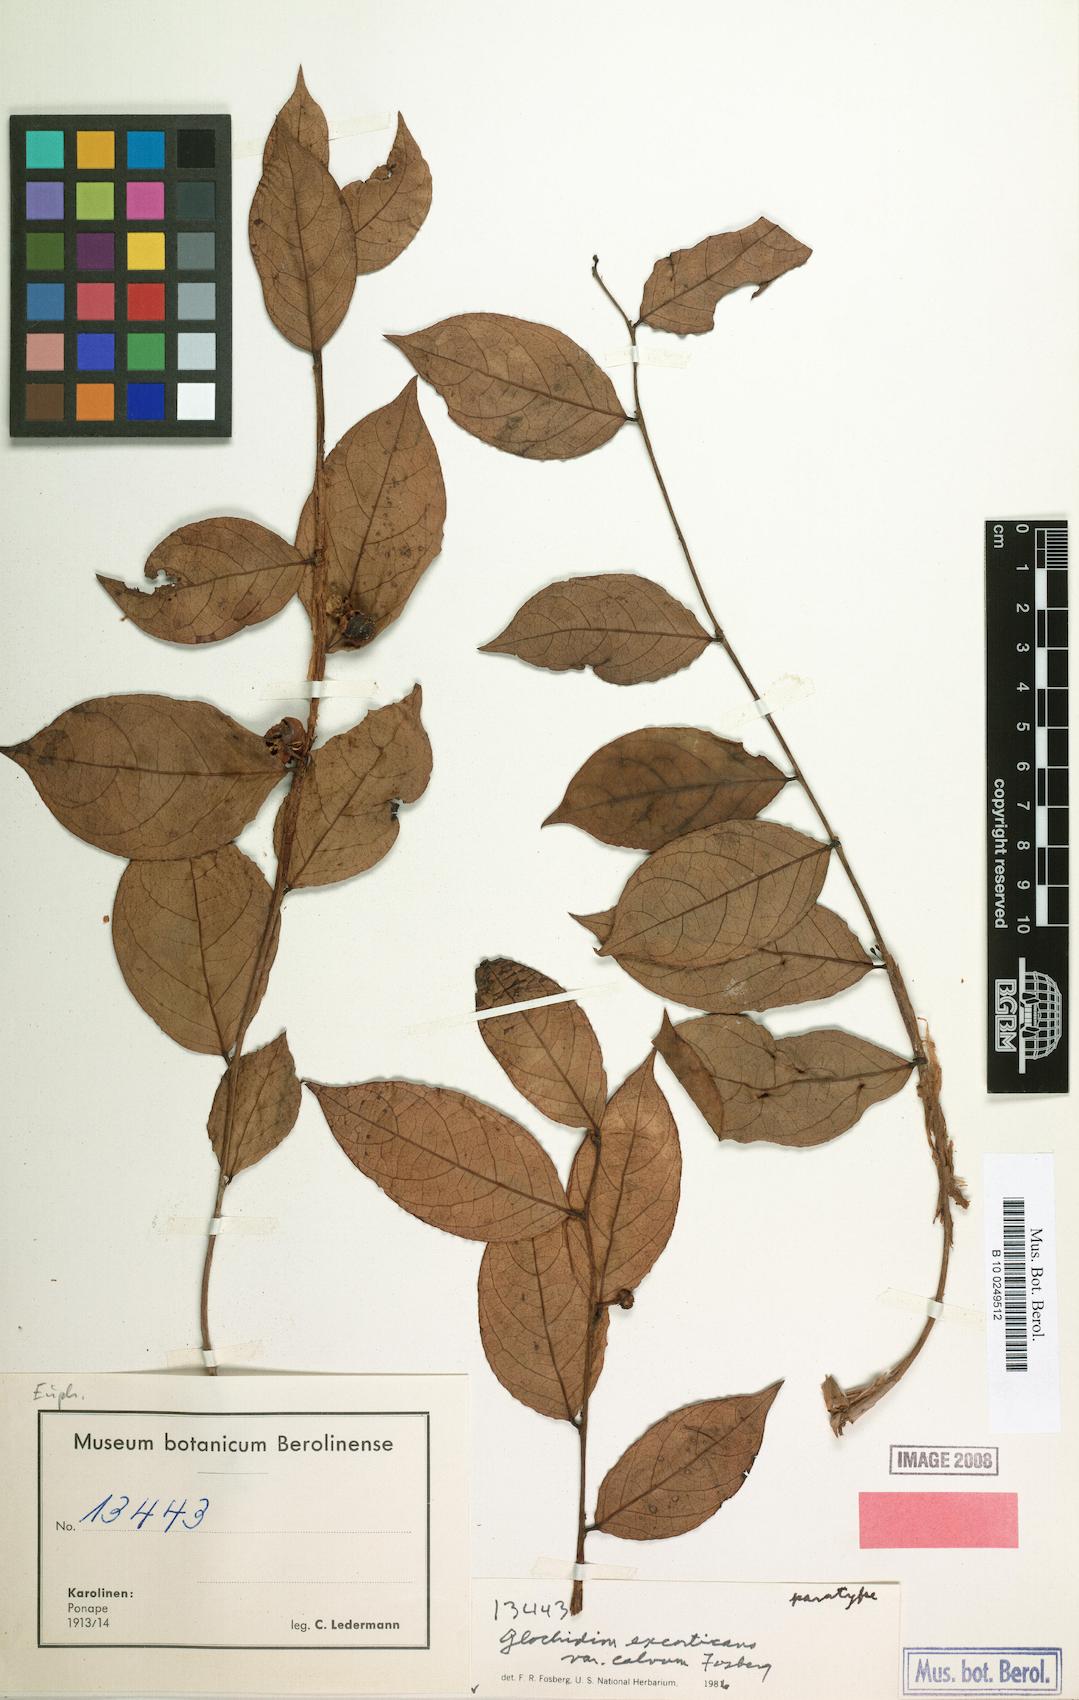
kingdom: Plantae
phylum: Tracheophyta
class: Magnoliopsida
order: Malpighiales
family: Phyllanthaceae
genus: Glochidion
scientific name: Glochidion ponapense
